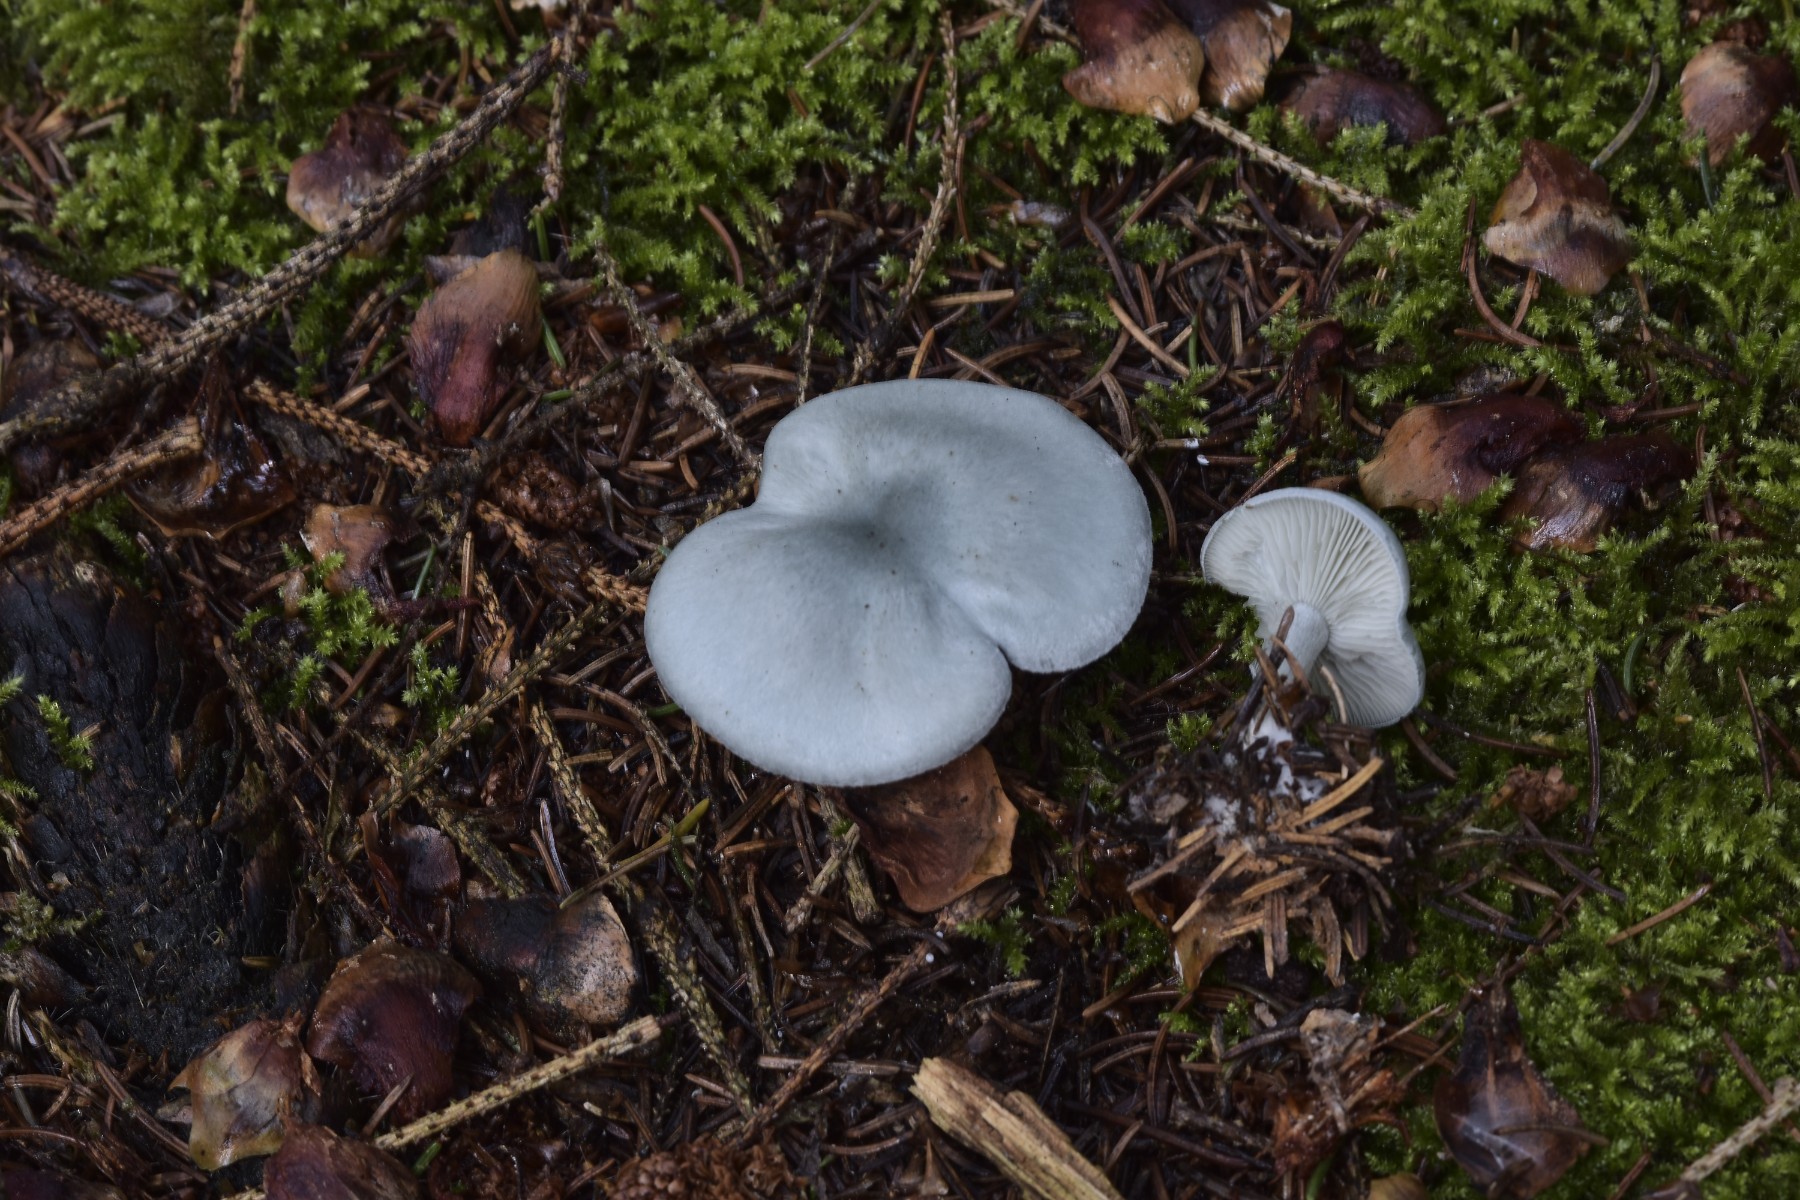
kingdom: Fungi
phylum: Basidiomycota
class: Agaricomycetes
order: Agaricales
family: Tricholomataceae
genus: Clitocybe
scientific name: Clitocybe odora
